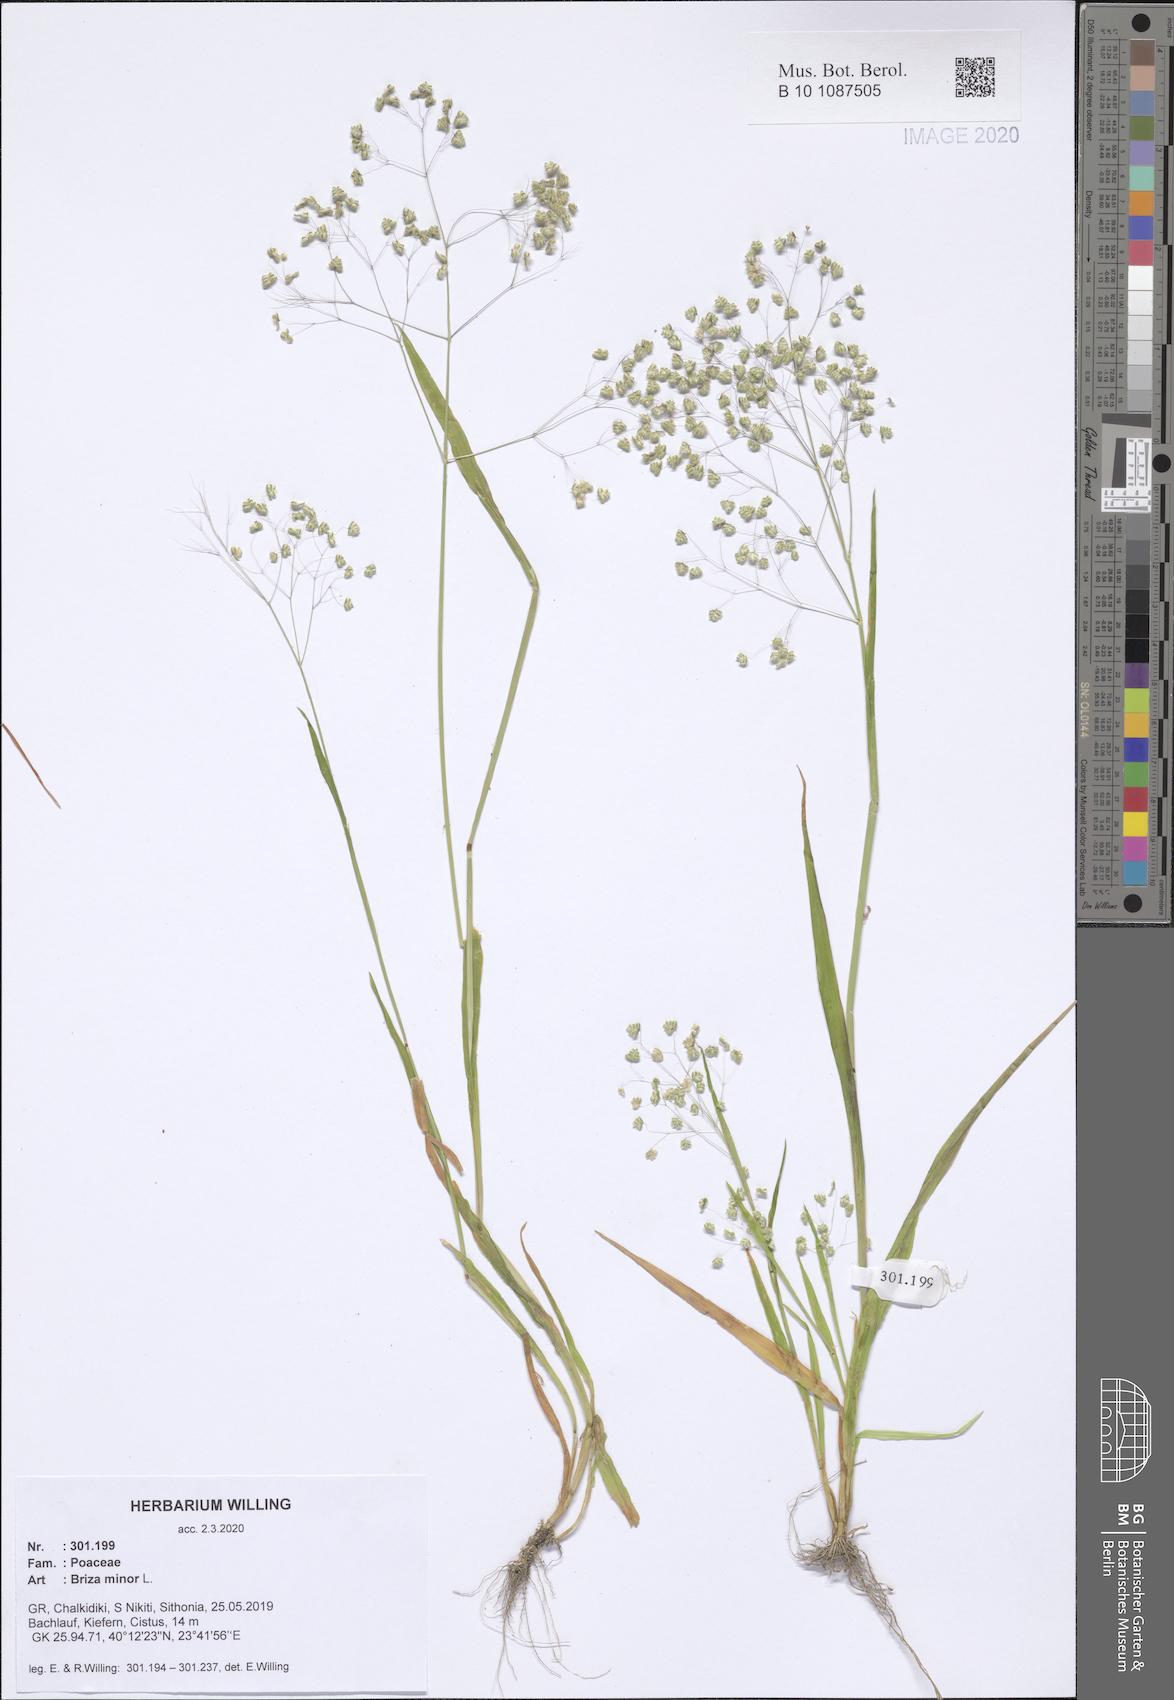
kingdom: Plantae
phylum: Tracheophyta
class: Liliopsida
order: Poales
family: Poaceae
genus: Briza
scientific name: Briza minor
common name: Lesser quaking-grass
